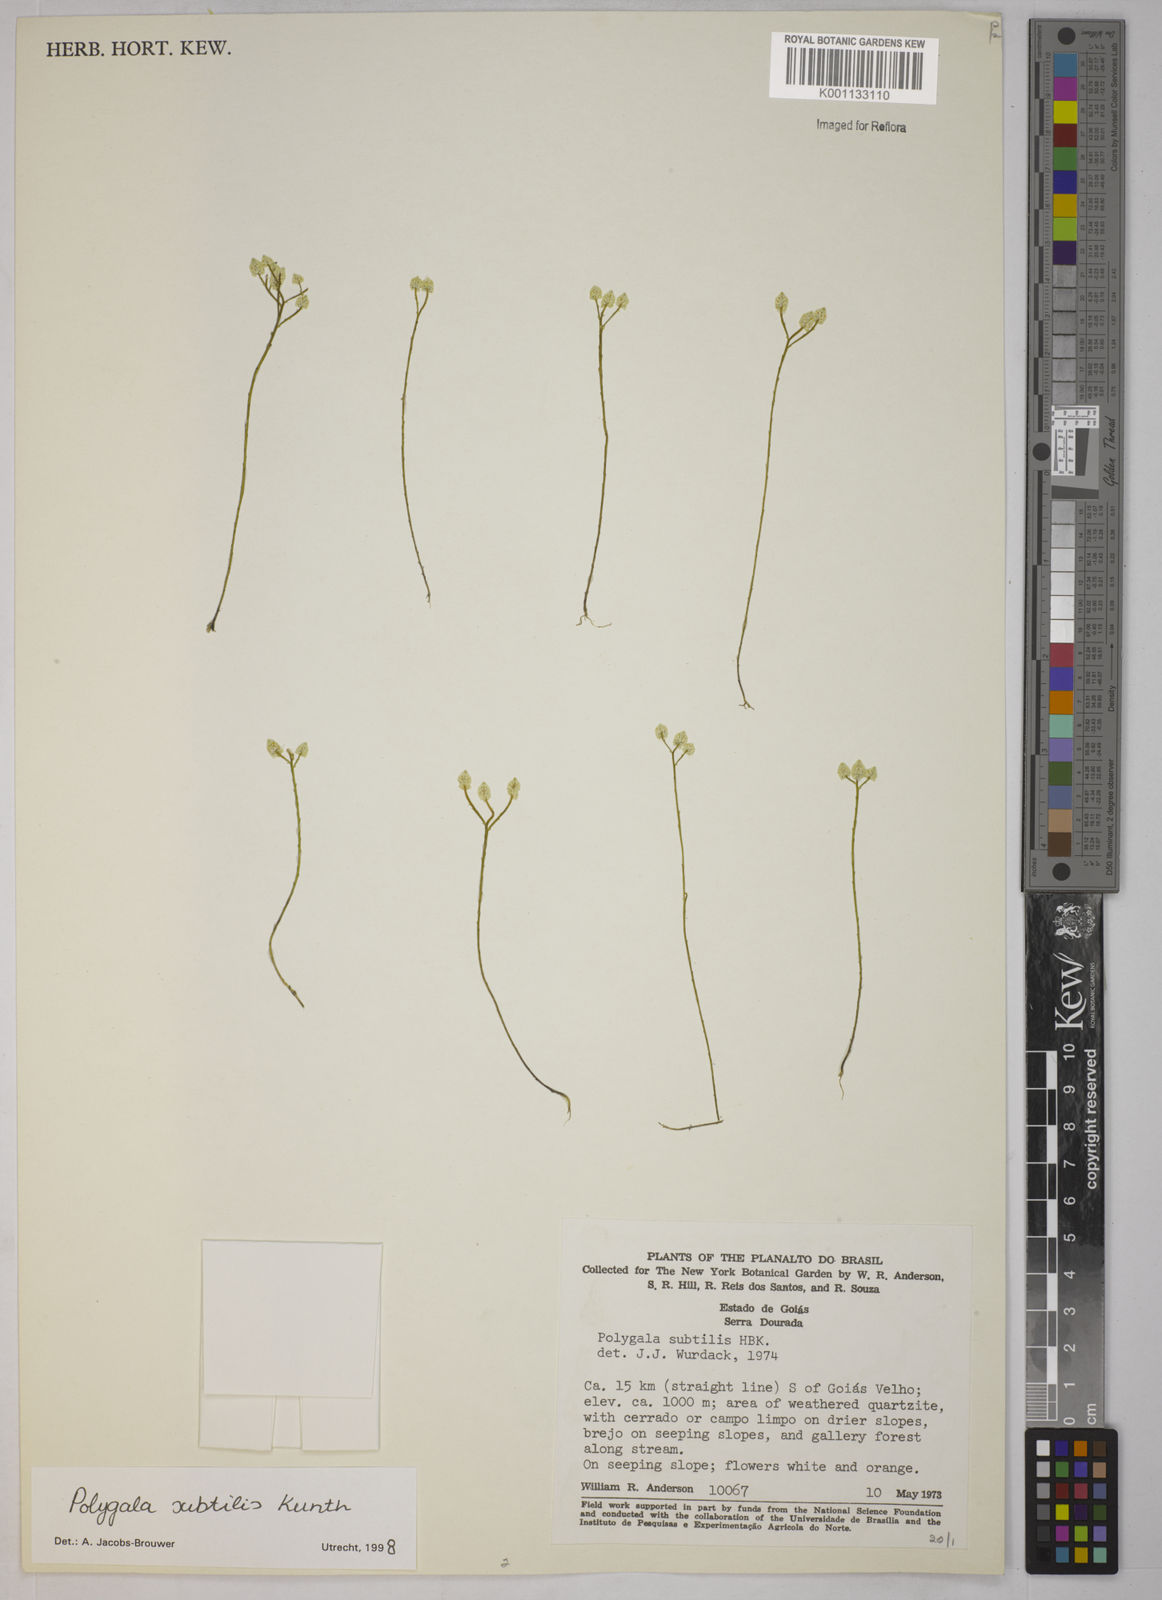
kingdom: Plantae
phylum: Tracheophyta
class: Magnoliopsida
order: Fabales
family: Polygalaceae
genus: Polygala
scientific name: Polygala subtilis
